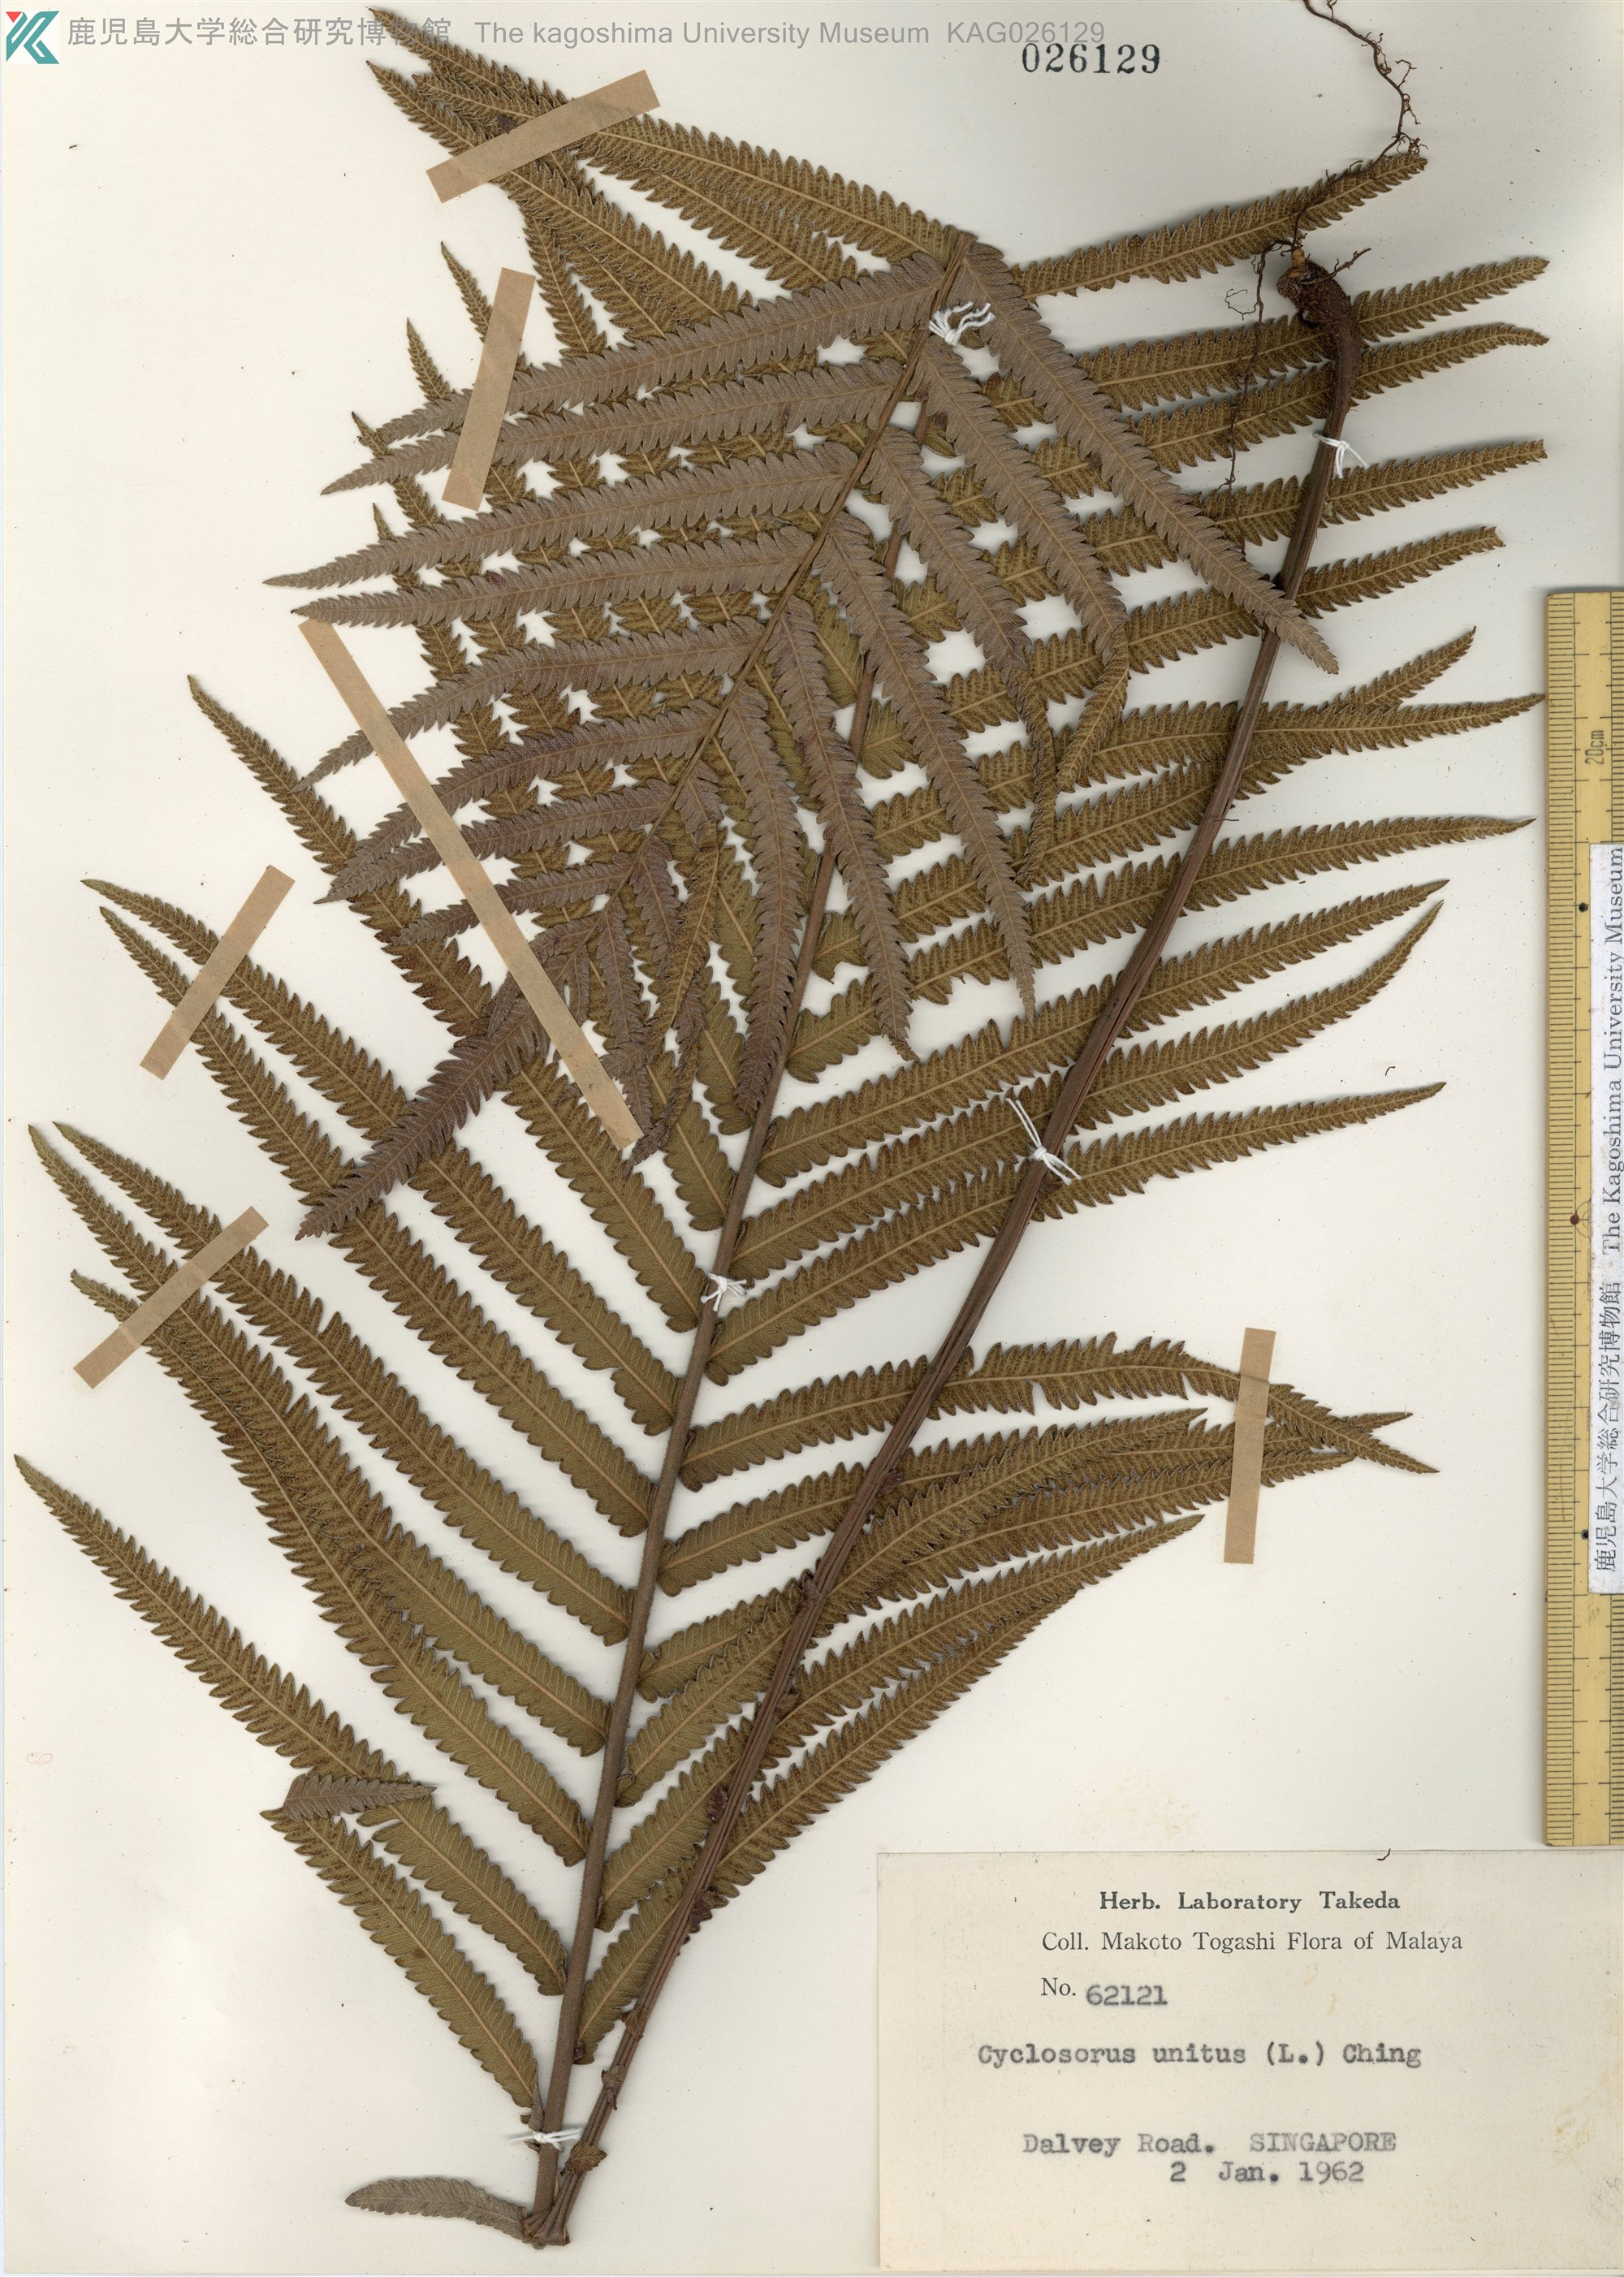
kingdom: Plantae
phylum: Tracheophyta
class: Polypodiopsida
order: Polypodiales
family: Thelypteridaceae
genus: Strophocaulon
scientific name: Strophocaulon unitum
